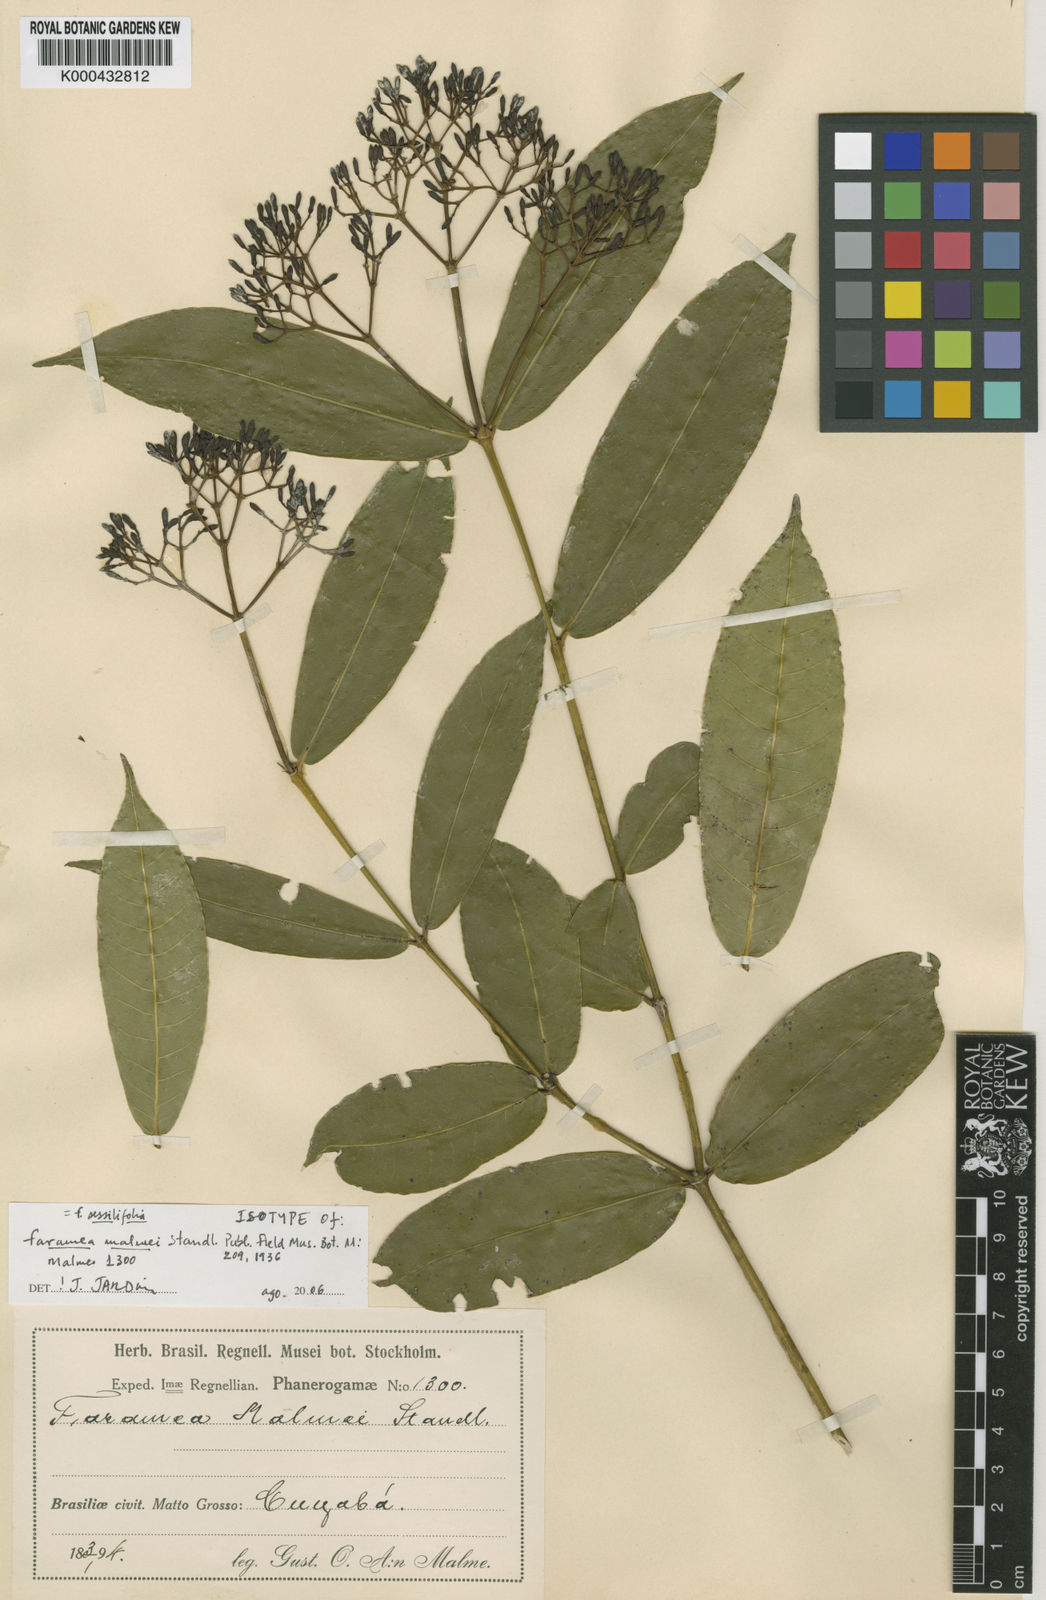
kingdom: Plantae
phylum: Tracheophyta
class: Magnoliopsida
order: Gentianales
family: Rubiaceae
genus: Faramea
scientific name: Faramea malmei
